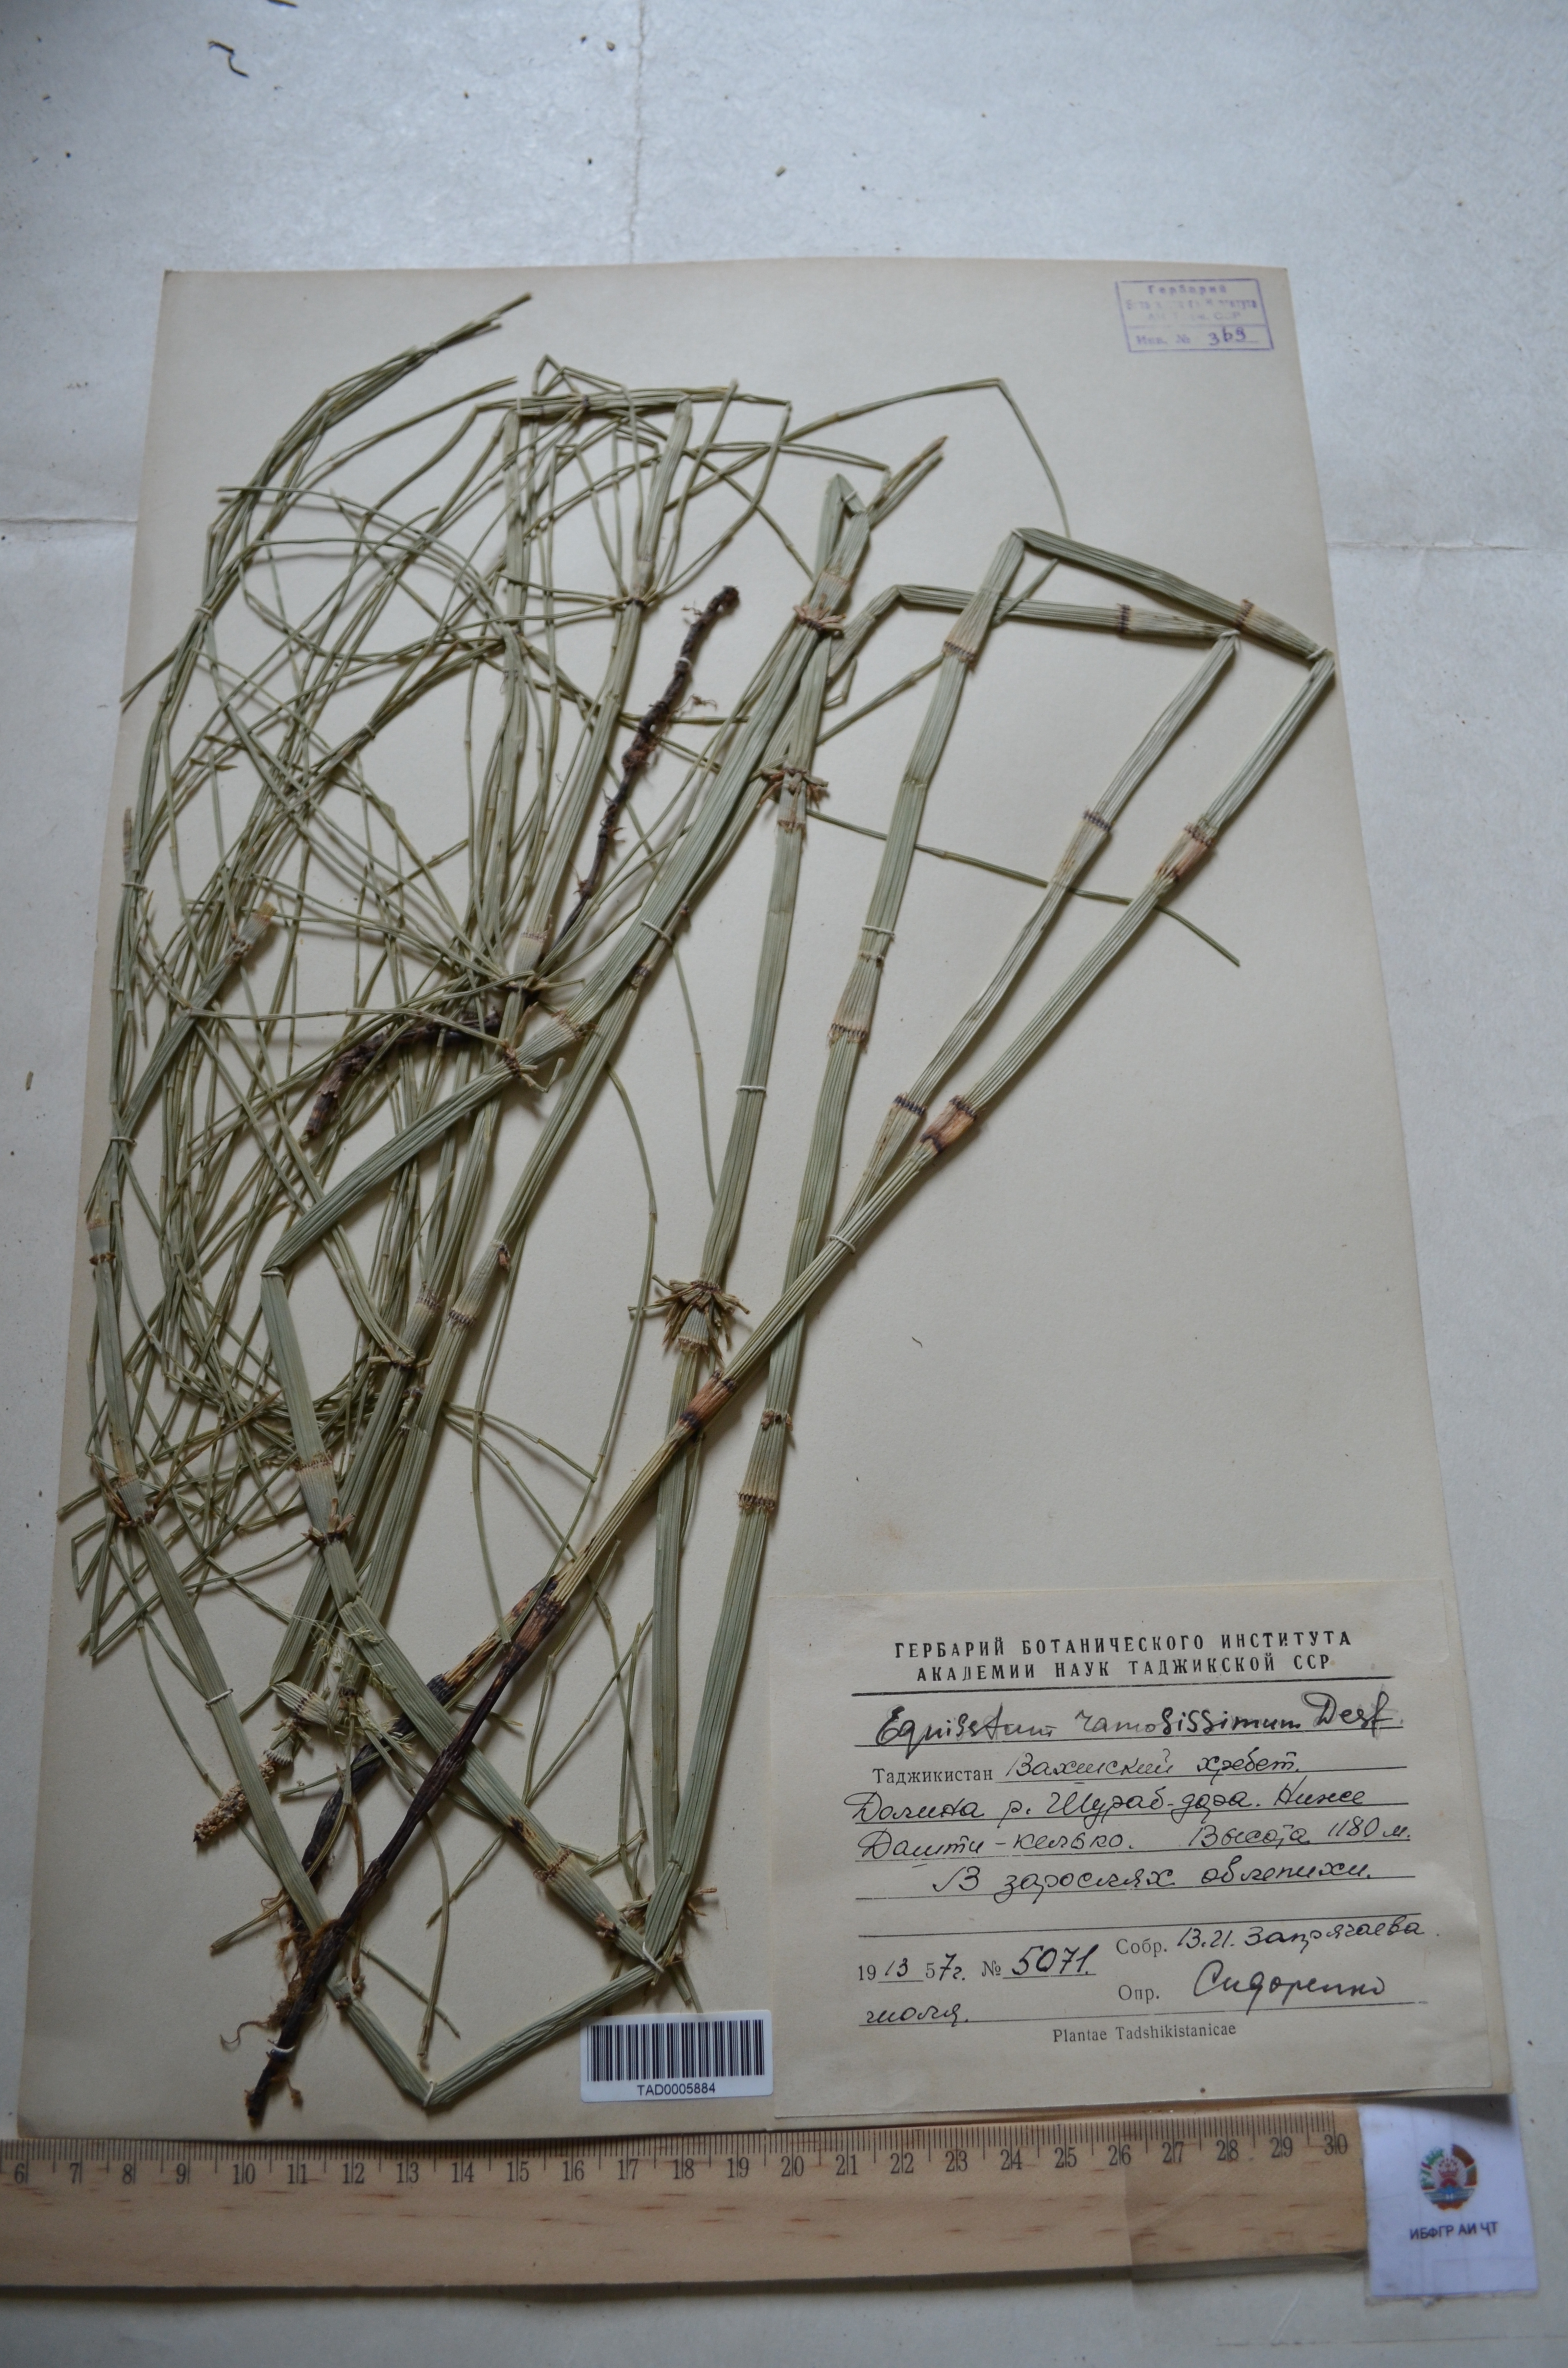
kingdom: Plantae
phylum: Tracheophyta
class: Polypodiopsida
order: Equisetales
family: Equisetaceae
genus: Equisetum
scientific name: Equisetum ramosissimum
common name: Branched horsetail
